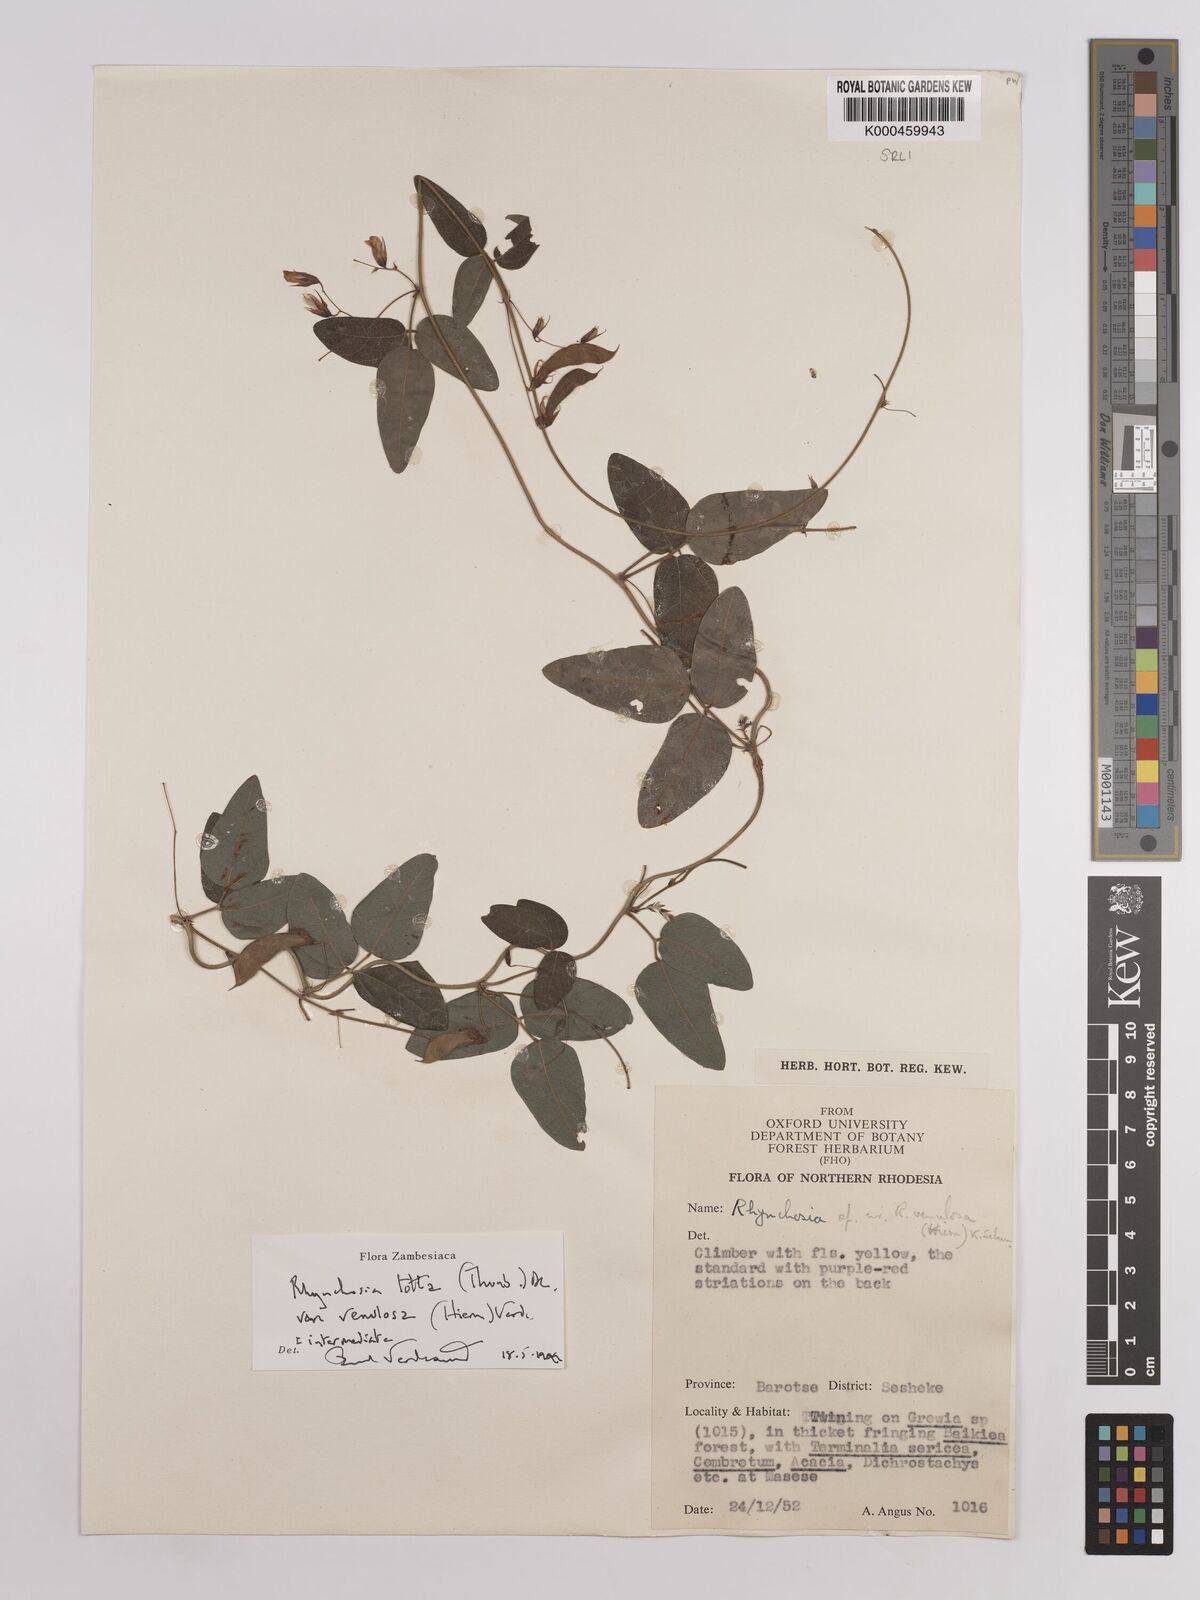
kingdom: Plantae
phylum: Tracheophyta
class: Magnoliopsida
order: Fabales
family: Fabaceae
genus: Rhynchosia
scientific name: Rhynchosia totta
